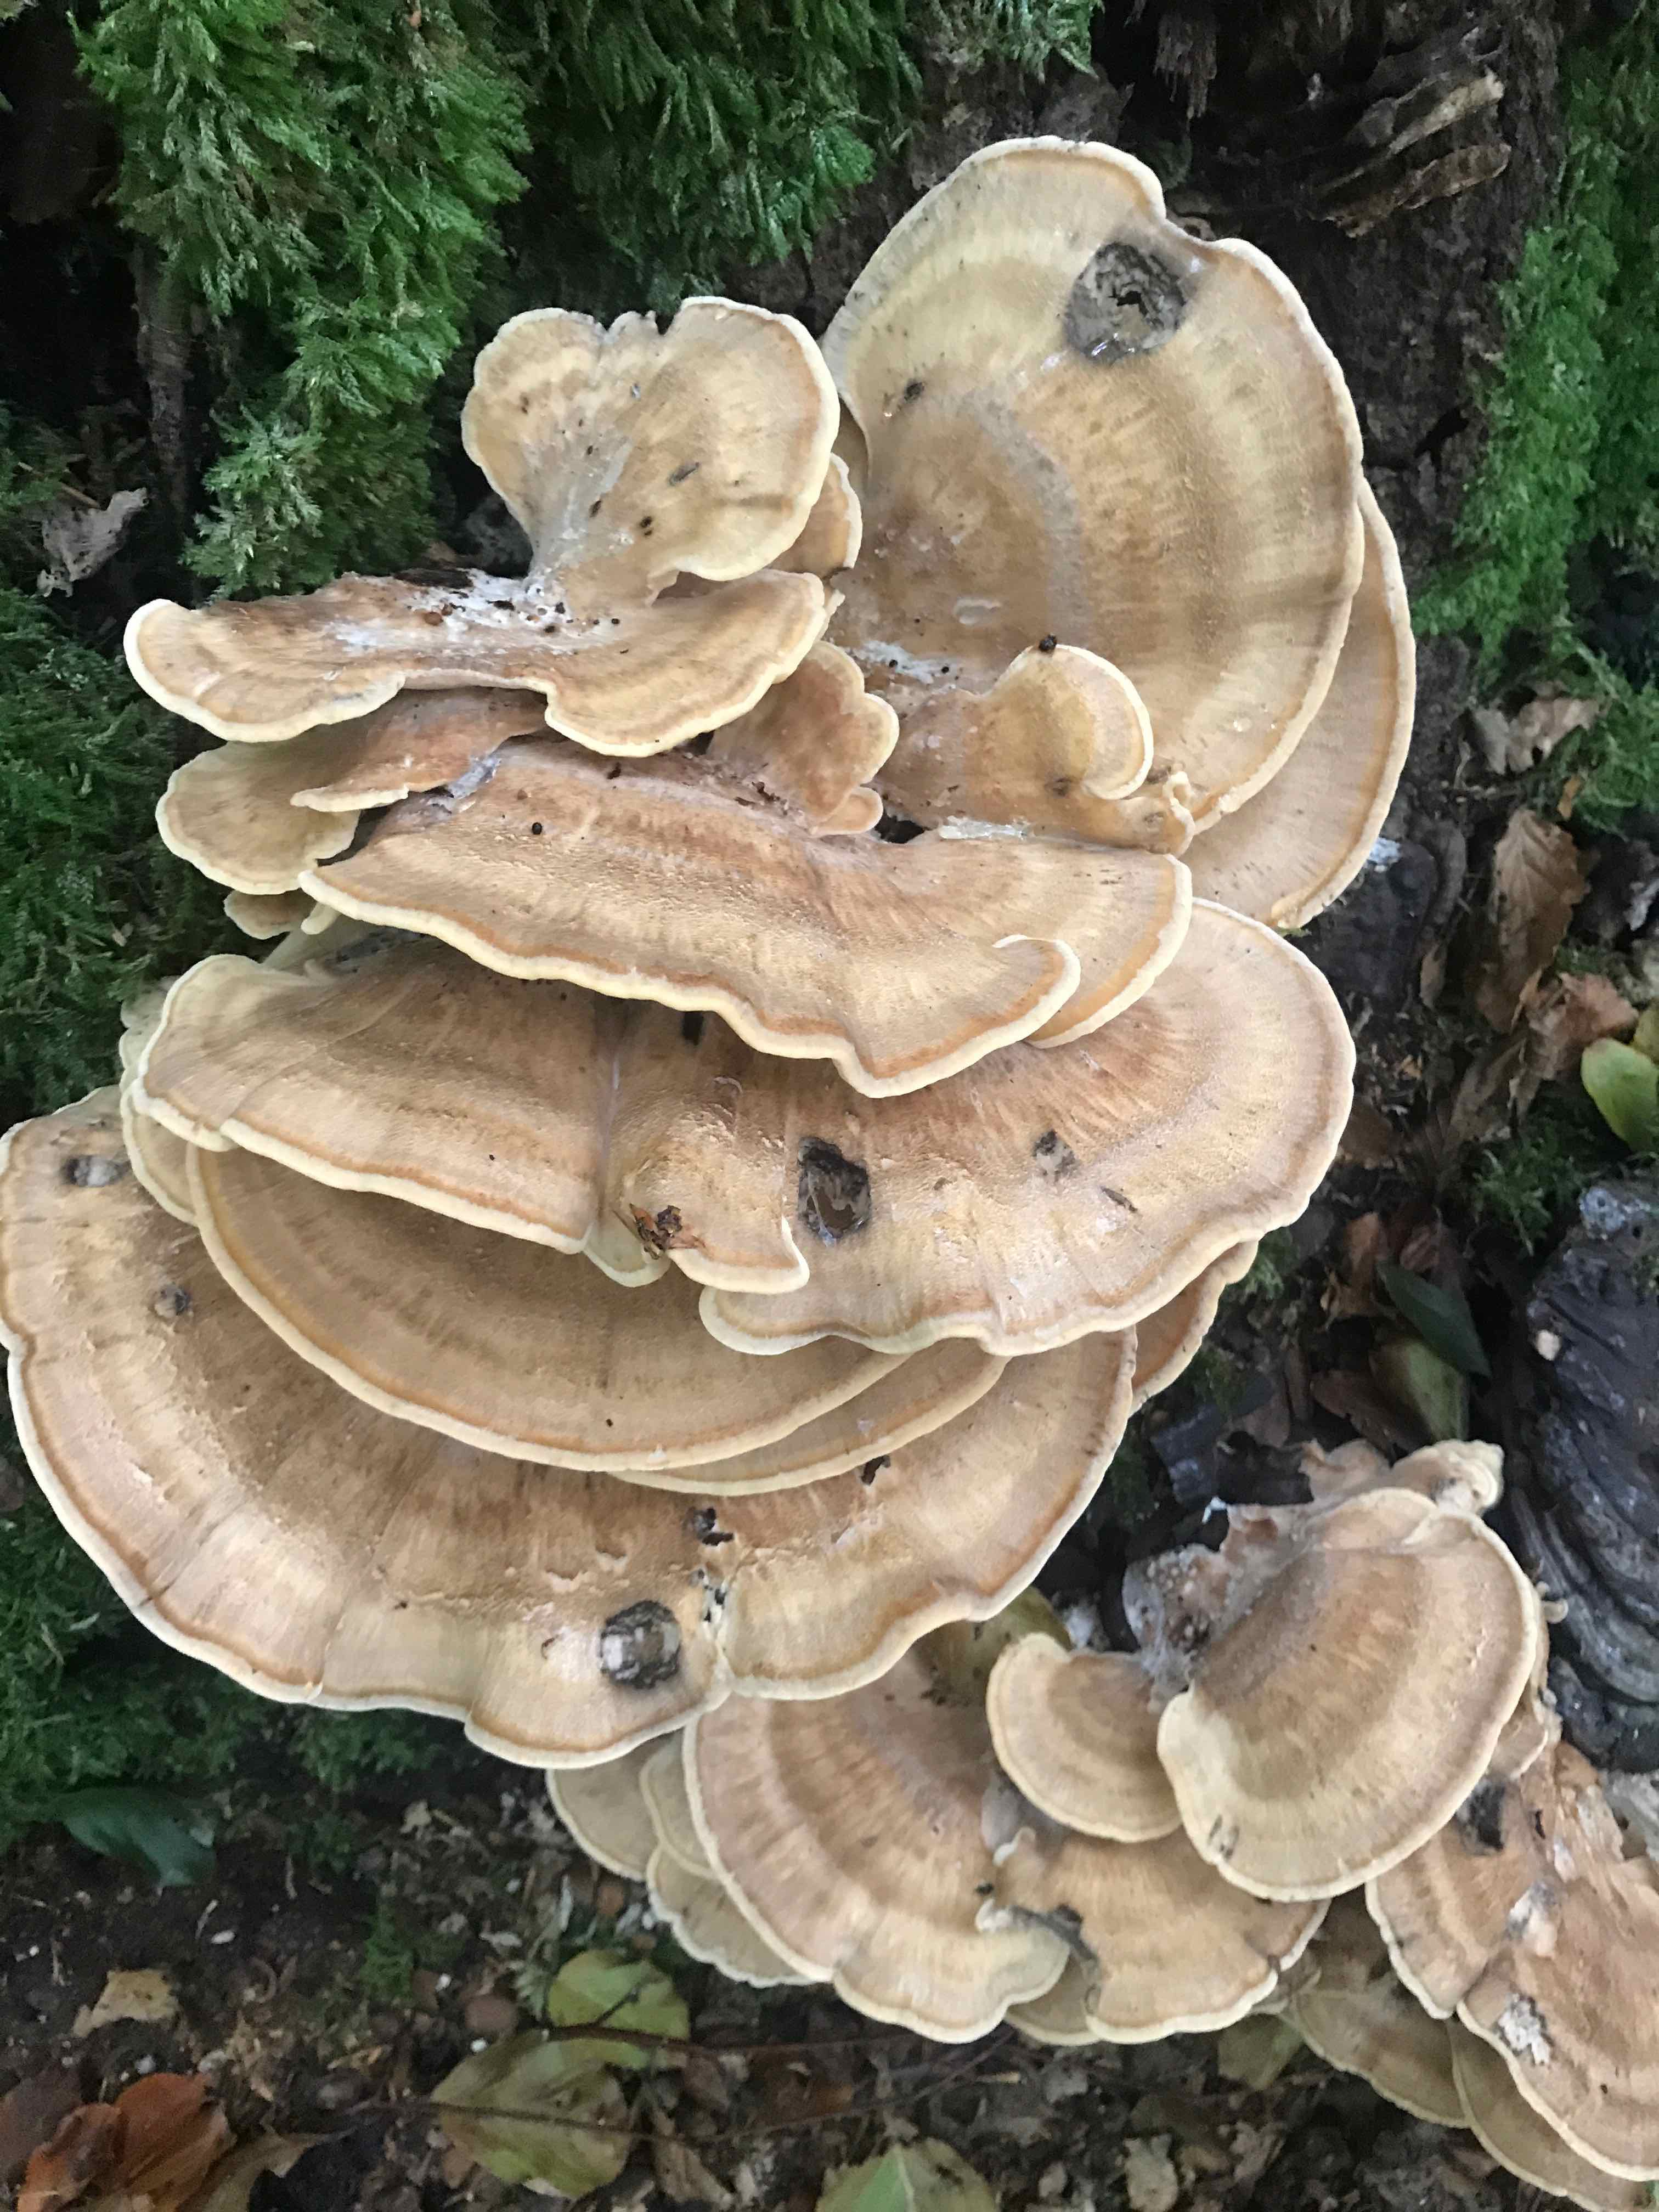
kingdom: Fungi
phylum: Basidiomycota
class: Agaricomycetes
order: Polyporales
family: Meripilaceae
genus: Meripilus
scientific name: Meripilus giganteus
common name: kæmpeporesvamp
